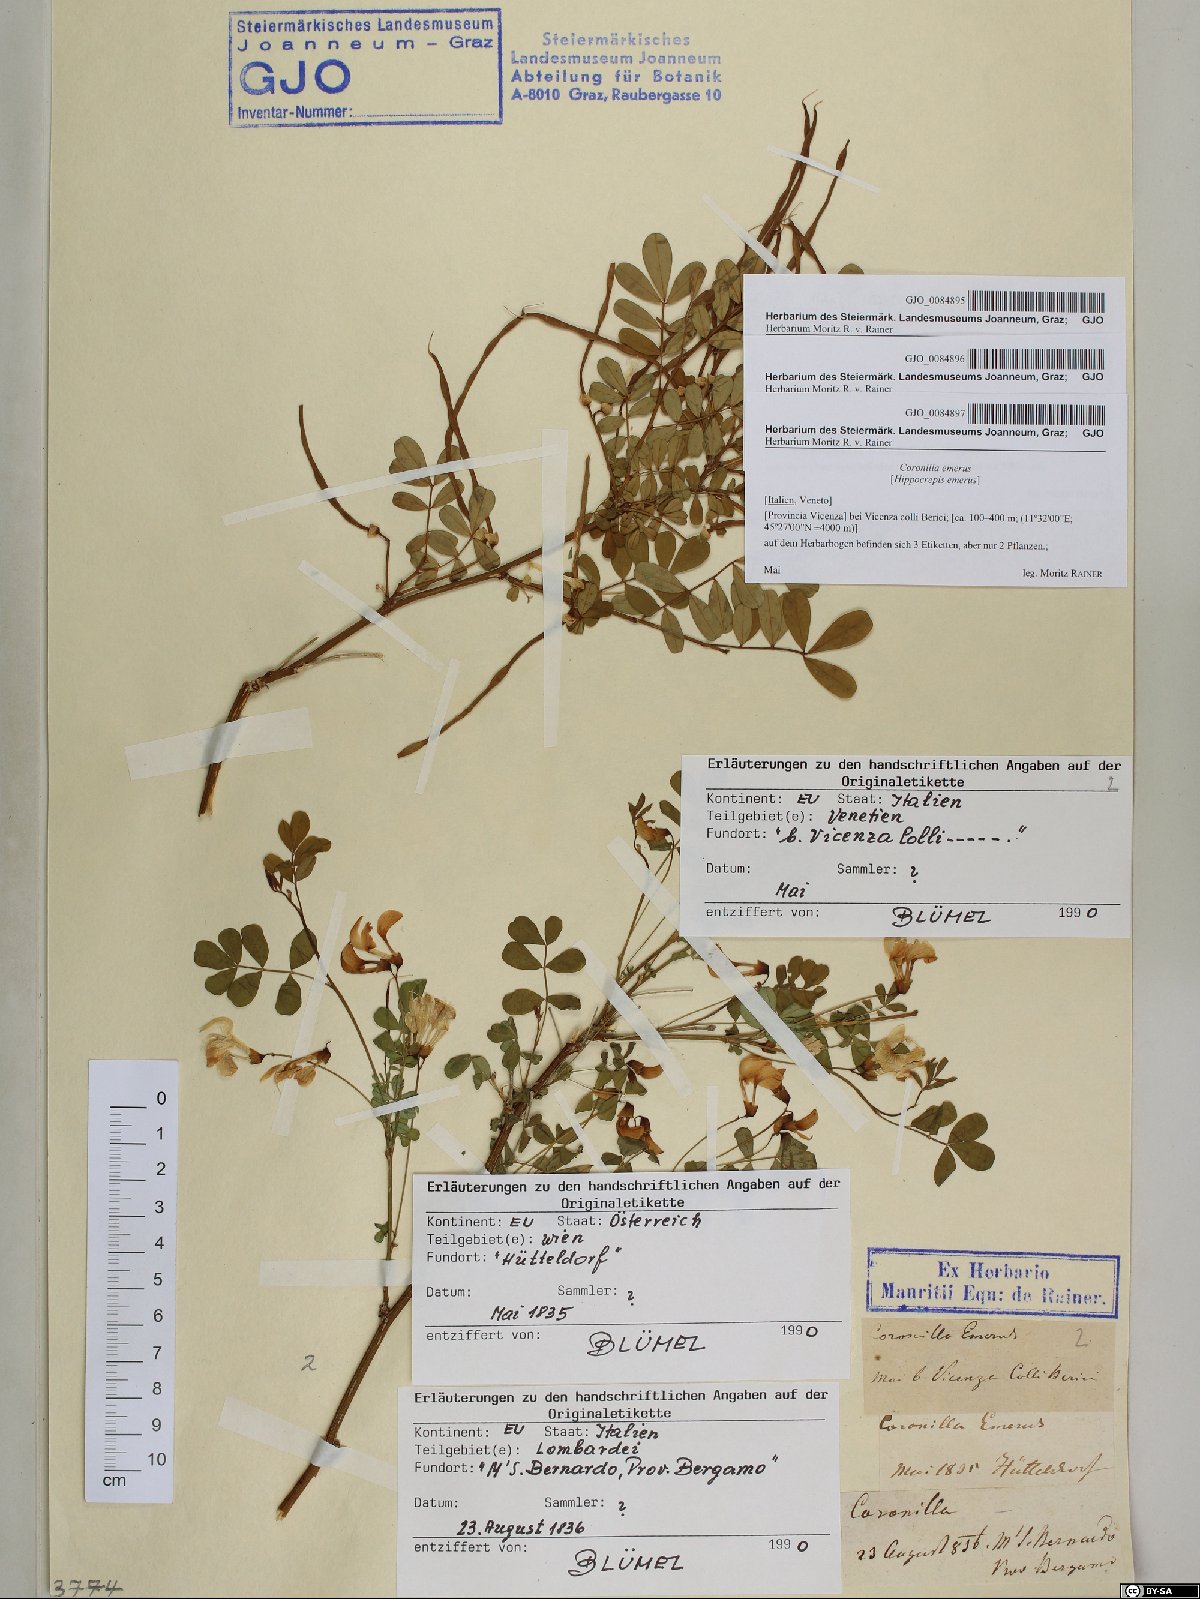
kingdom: Plantae
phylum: Tracheophyta
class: Magnoliopsida
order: Fabales
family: Fabaceae
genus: Coronilla
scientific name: Coronilla
